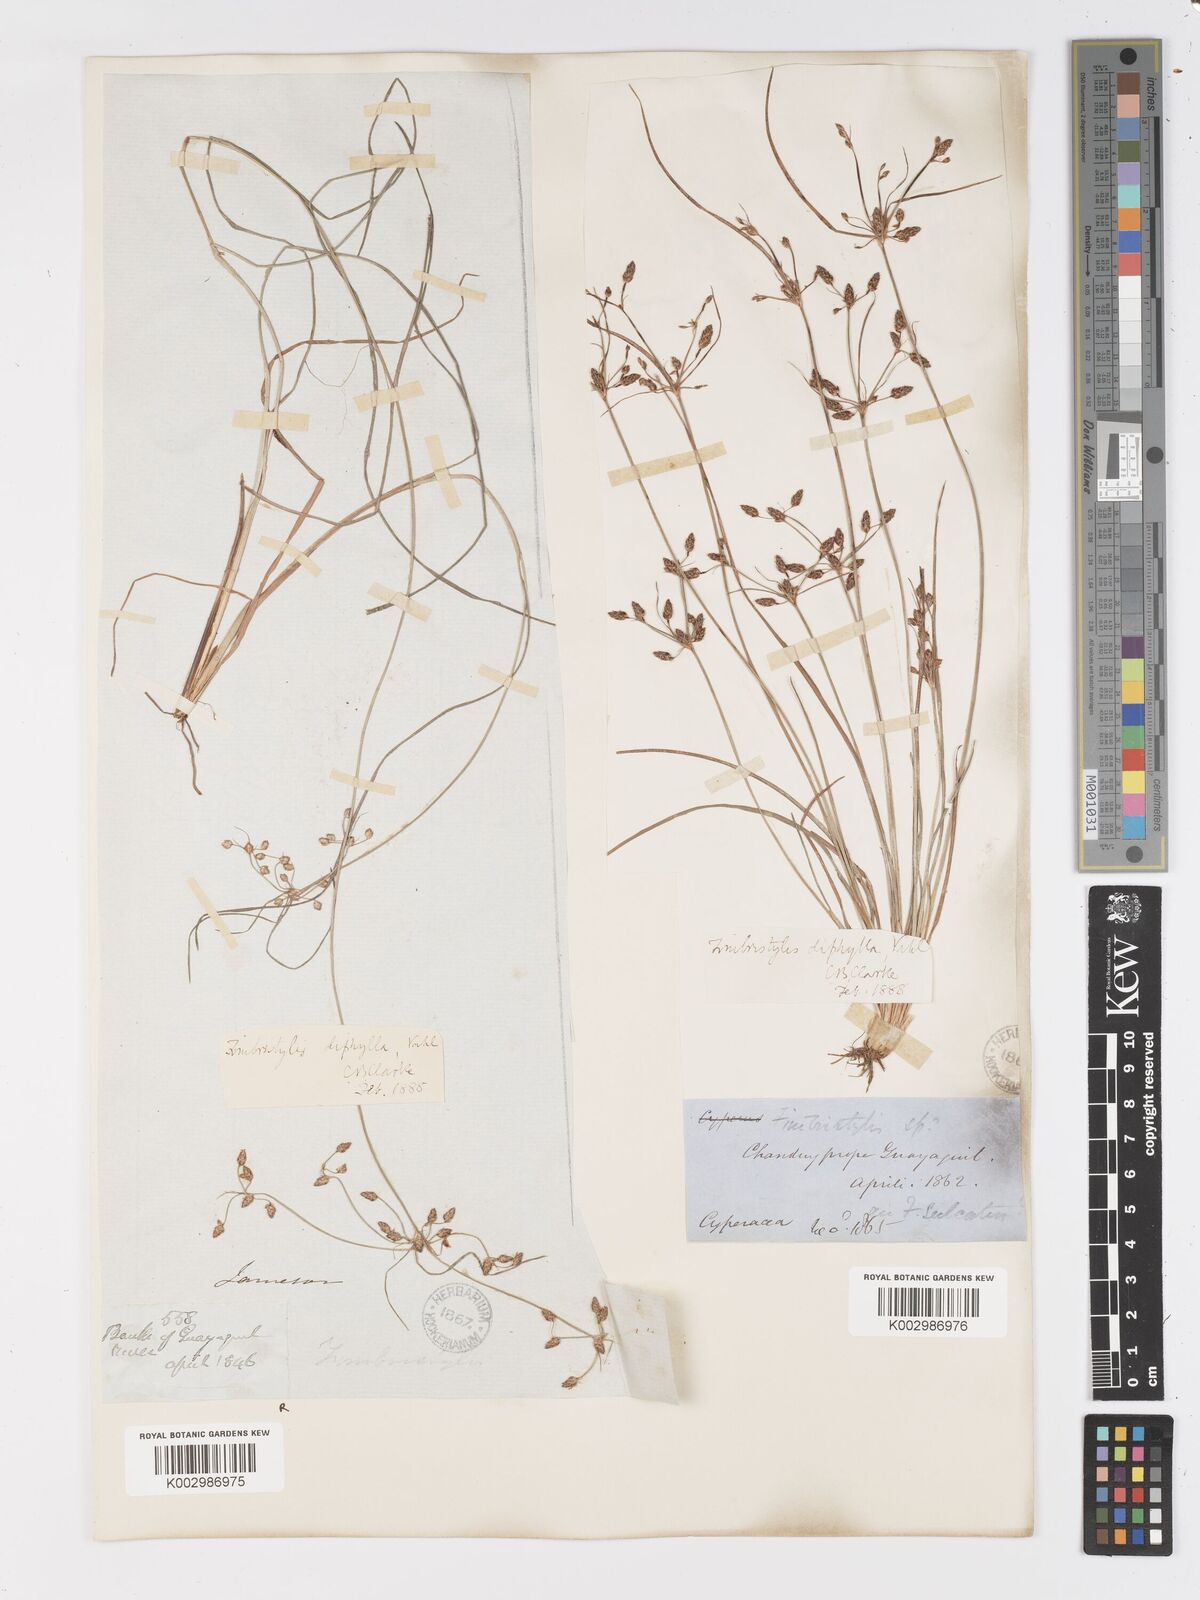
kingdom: Plantae
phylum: Tracheophyta
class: Liliopsida
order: Poales
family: Cyperaceae
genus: Fimbristylis
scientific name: Fimbristylis dichotoma
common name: Forked fimbry
